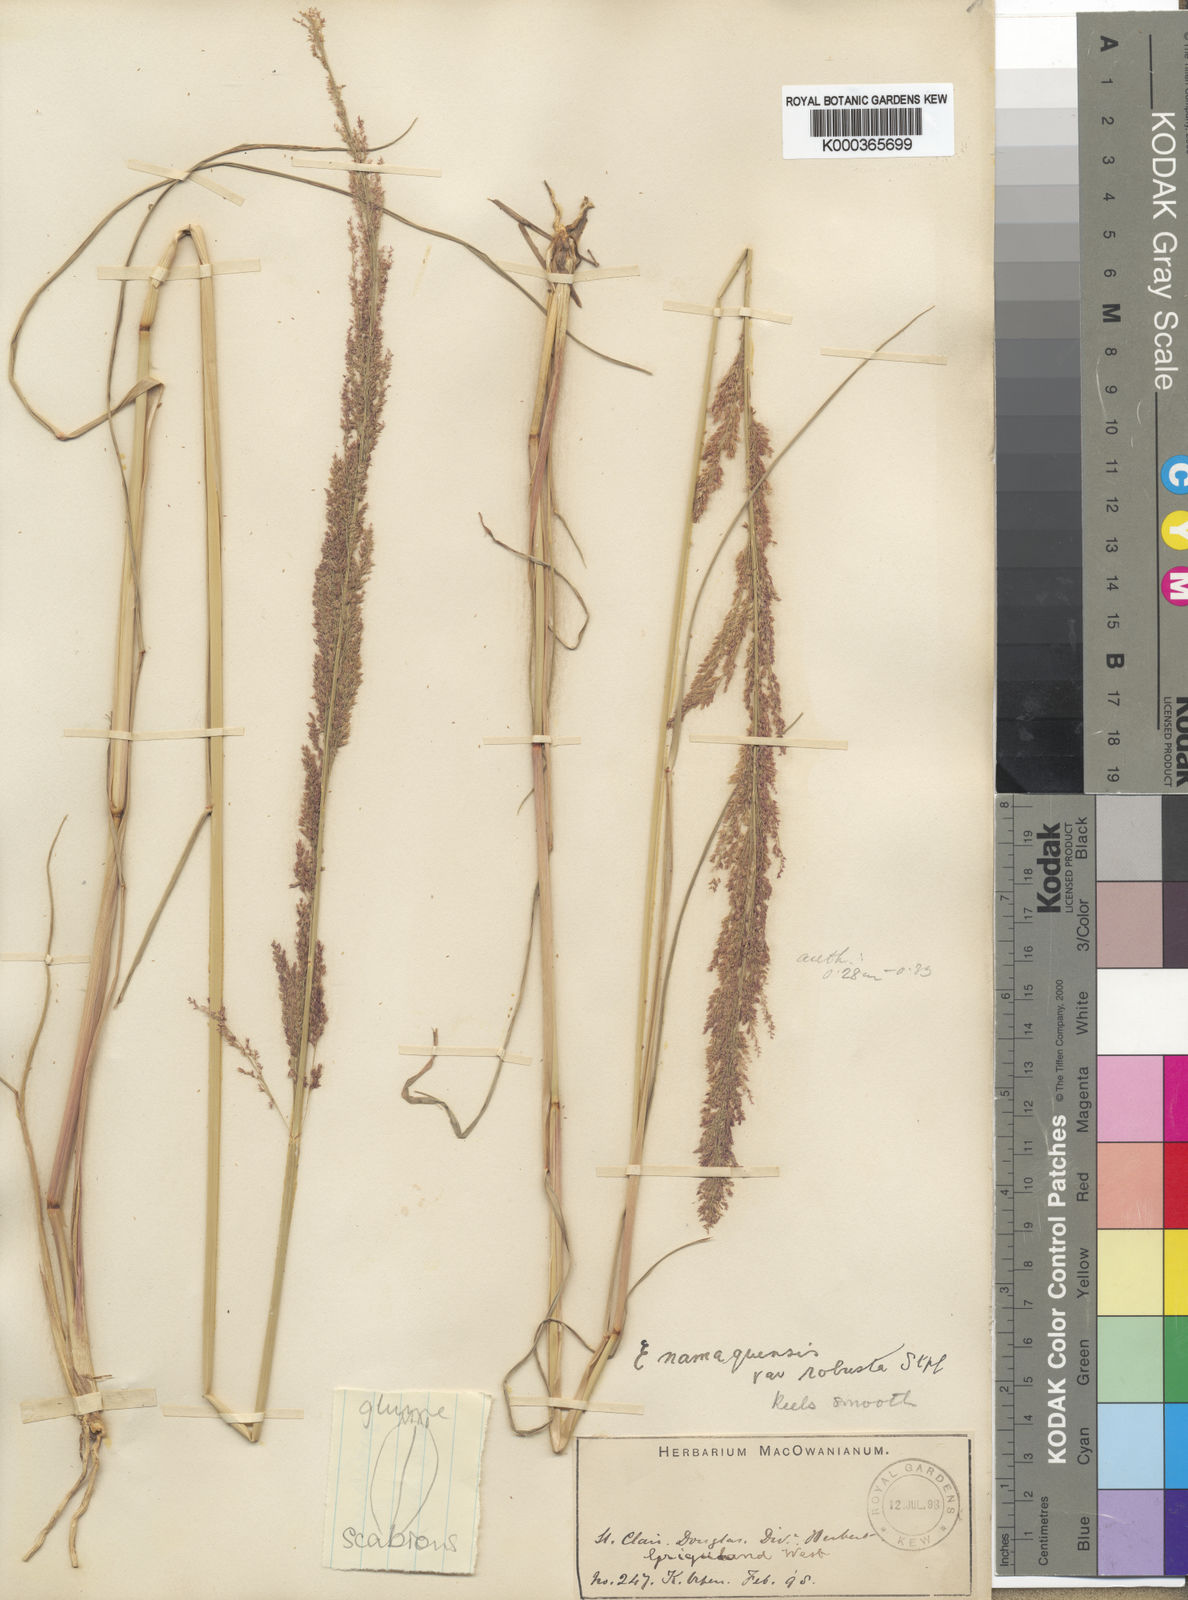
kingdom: Plantae
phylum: Tracheophyta
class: Liliopsida
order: Poales
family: Poaceae
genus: Eragrostis
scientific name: Eragrostis japonica
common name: Pond lovegrass
